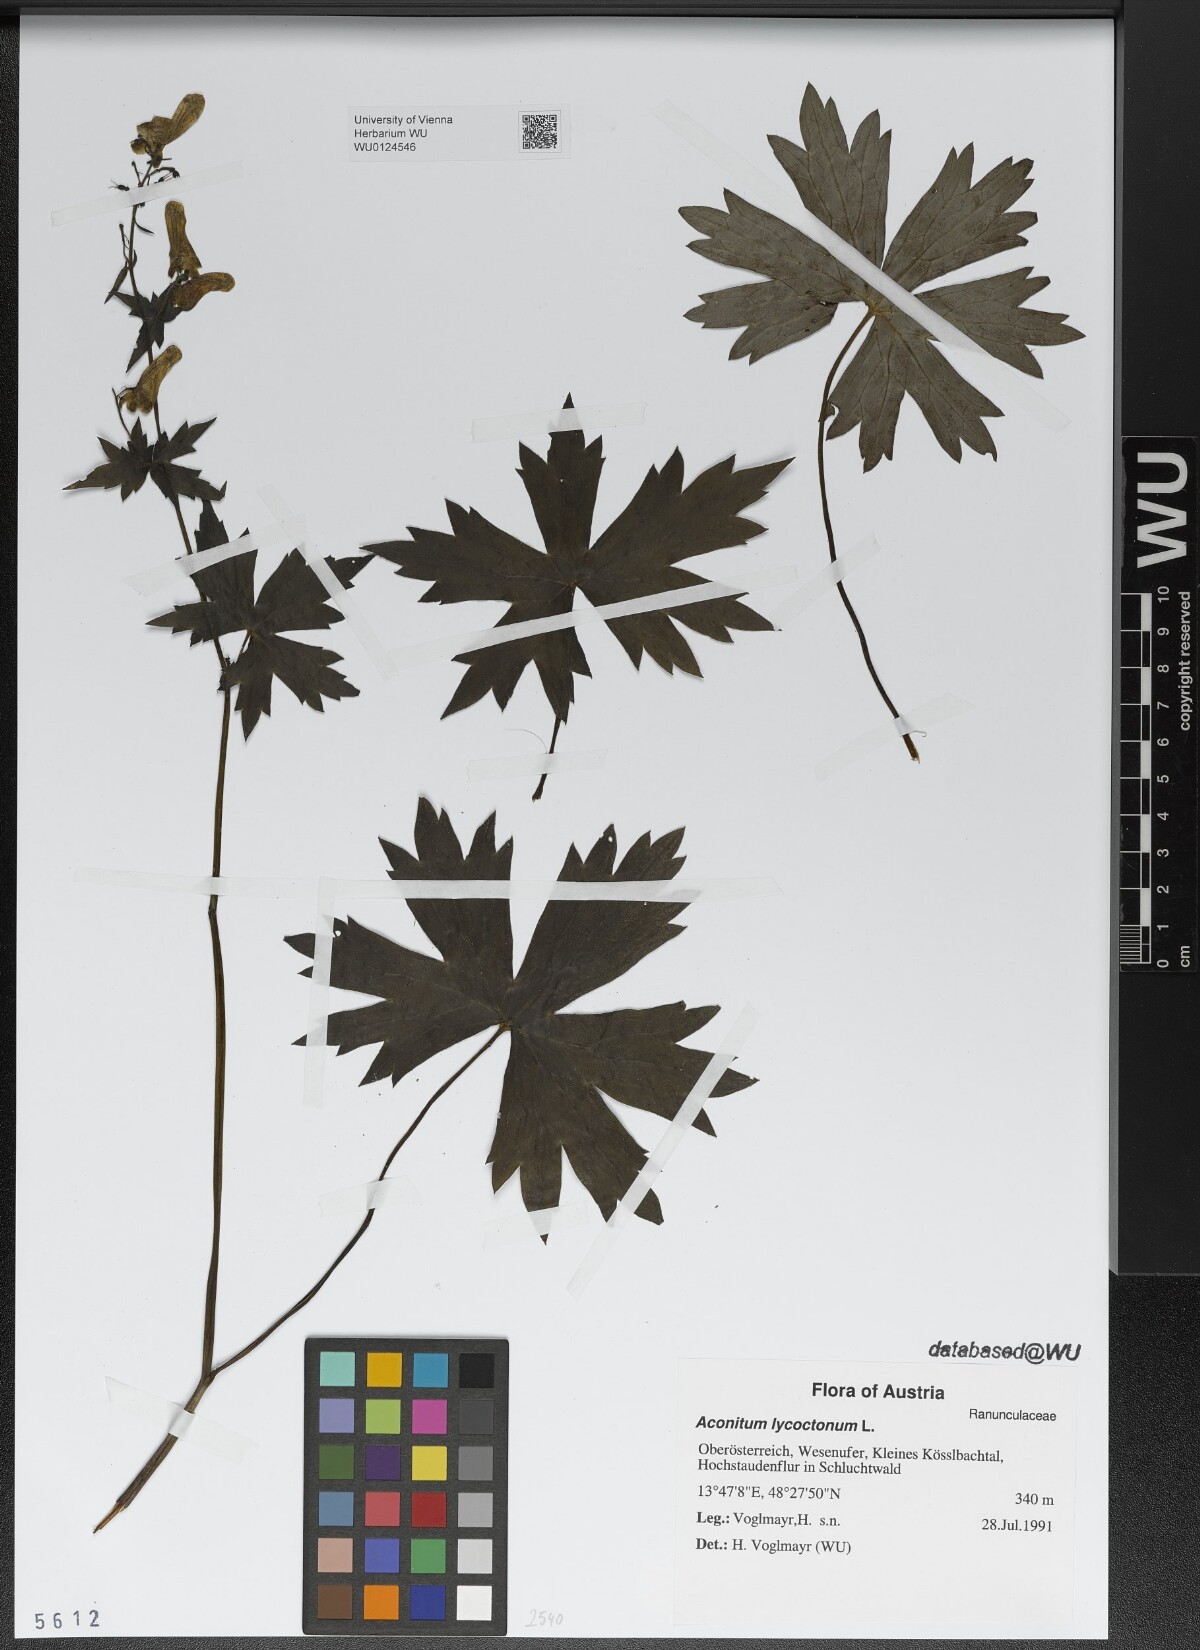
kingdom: Plantae
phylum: Tracheophyta
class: Magnoliopsida
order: Ranunculales
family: Ranunculaceae
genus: Aconitum
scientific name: Aconitum lycoctonum
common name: Wolf's-bane
